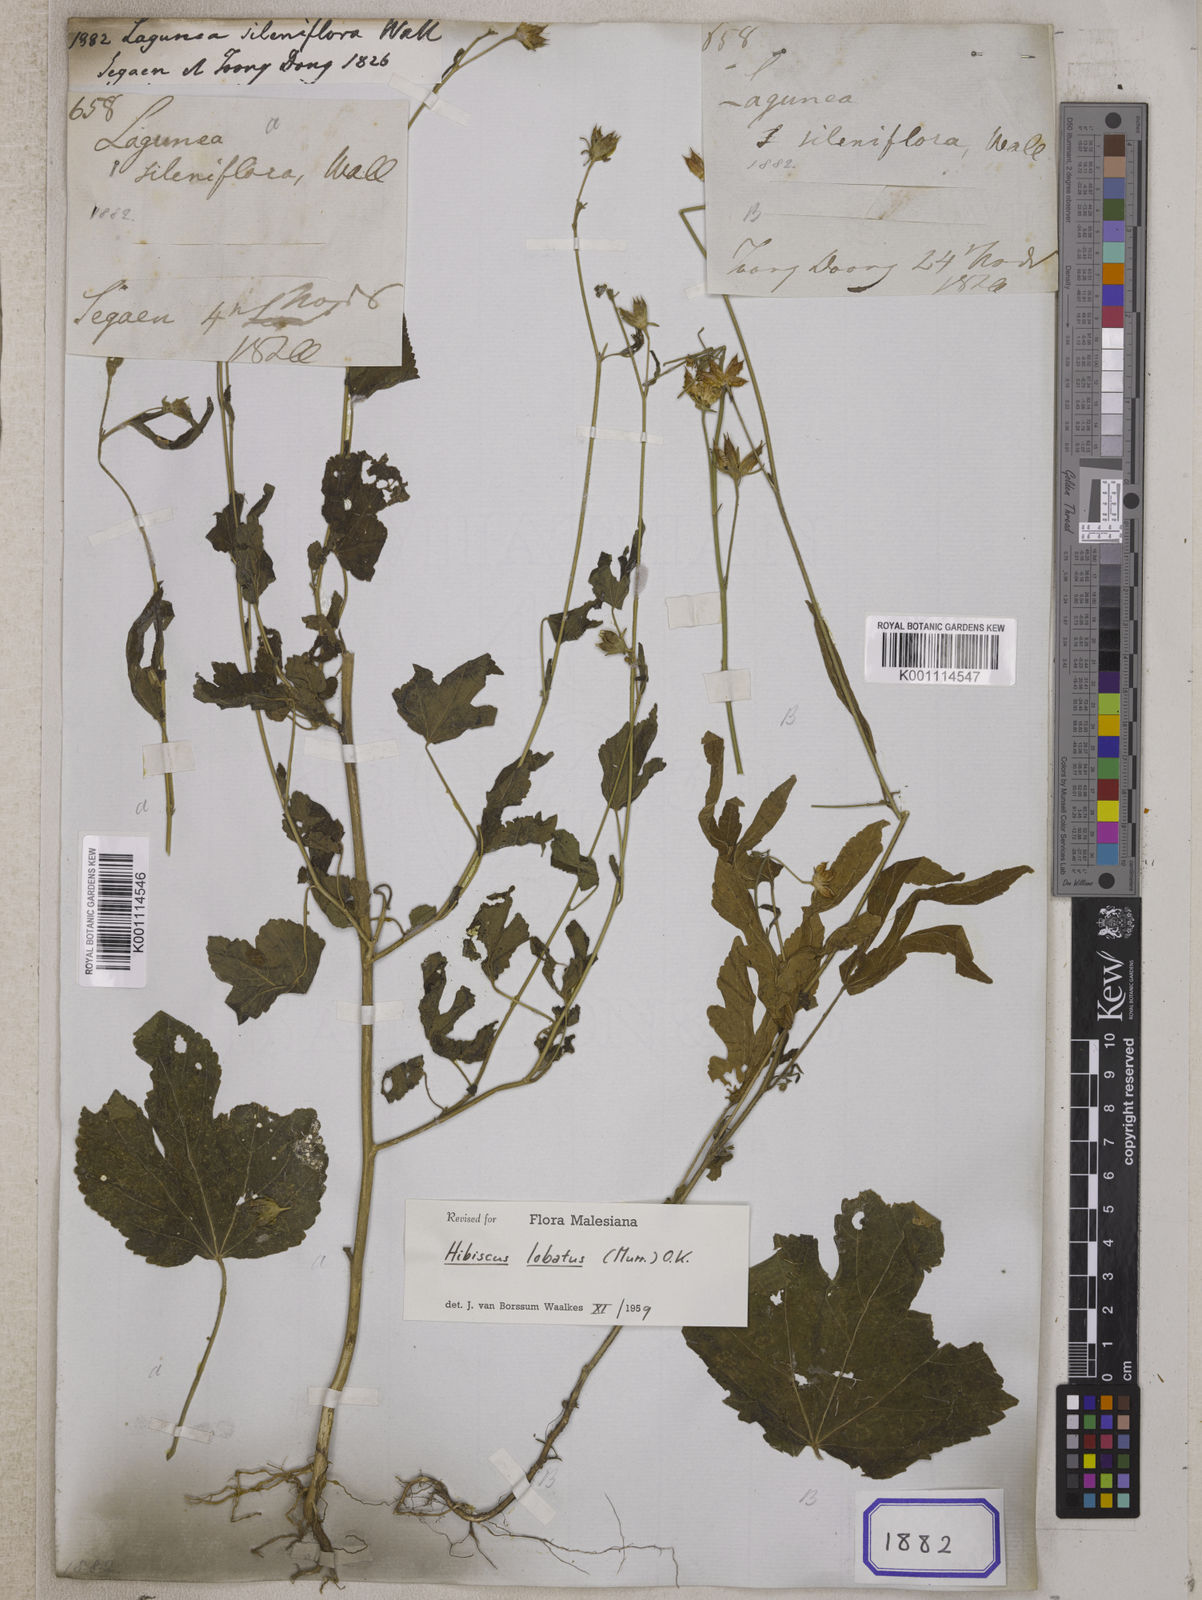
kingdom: Plantae
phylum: Tracheophyta
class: Magnoliopsida
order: Malvales
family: Malvaceae
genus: Hibiscus
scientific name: Hibiscus lobatus
